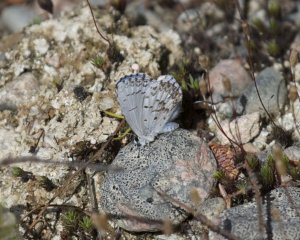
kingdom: Animalia
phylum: Arthropoda
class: Insecta
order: Lepidoptera
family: Lycaenidae
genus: Celastrina
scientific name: Celastrina lucia
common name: Northern Spring Azure
